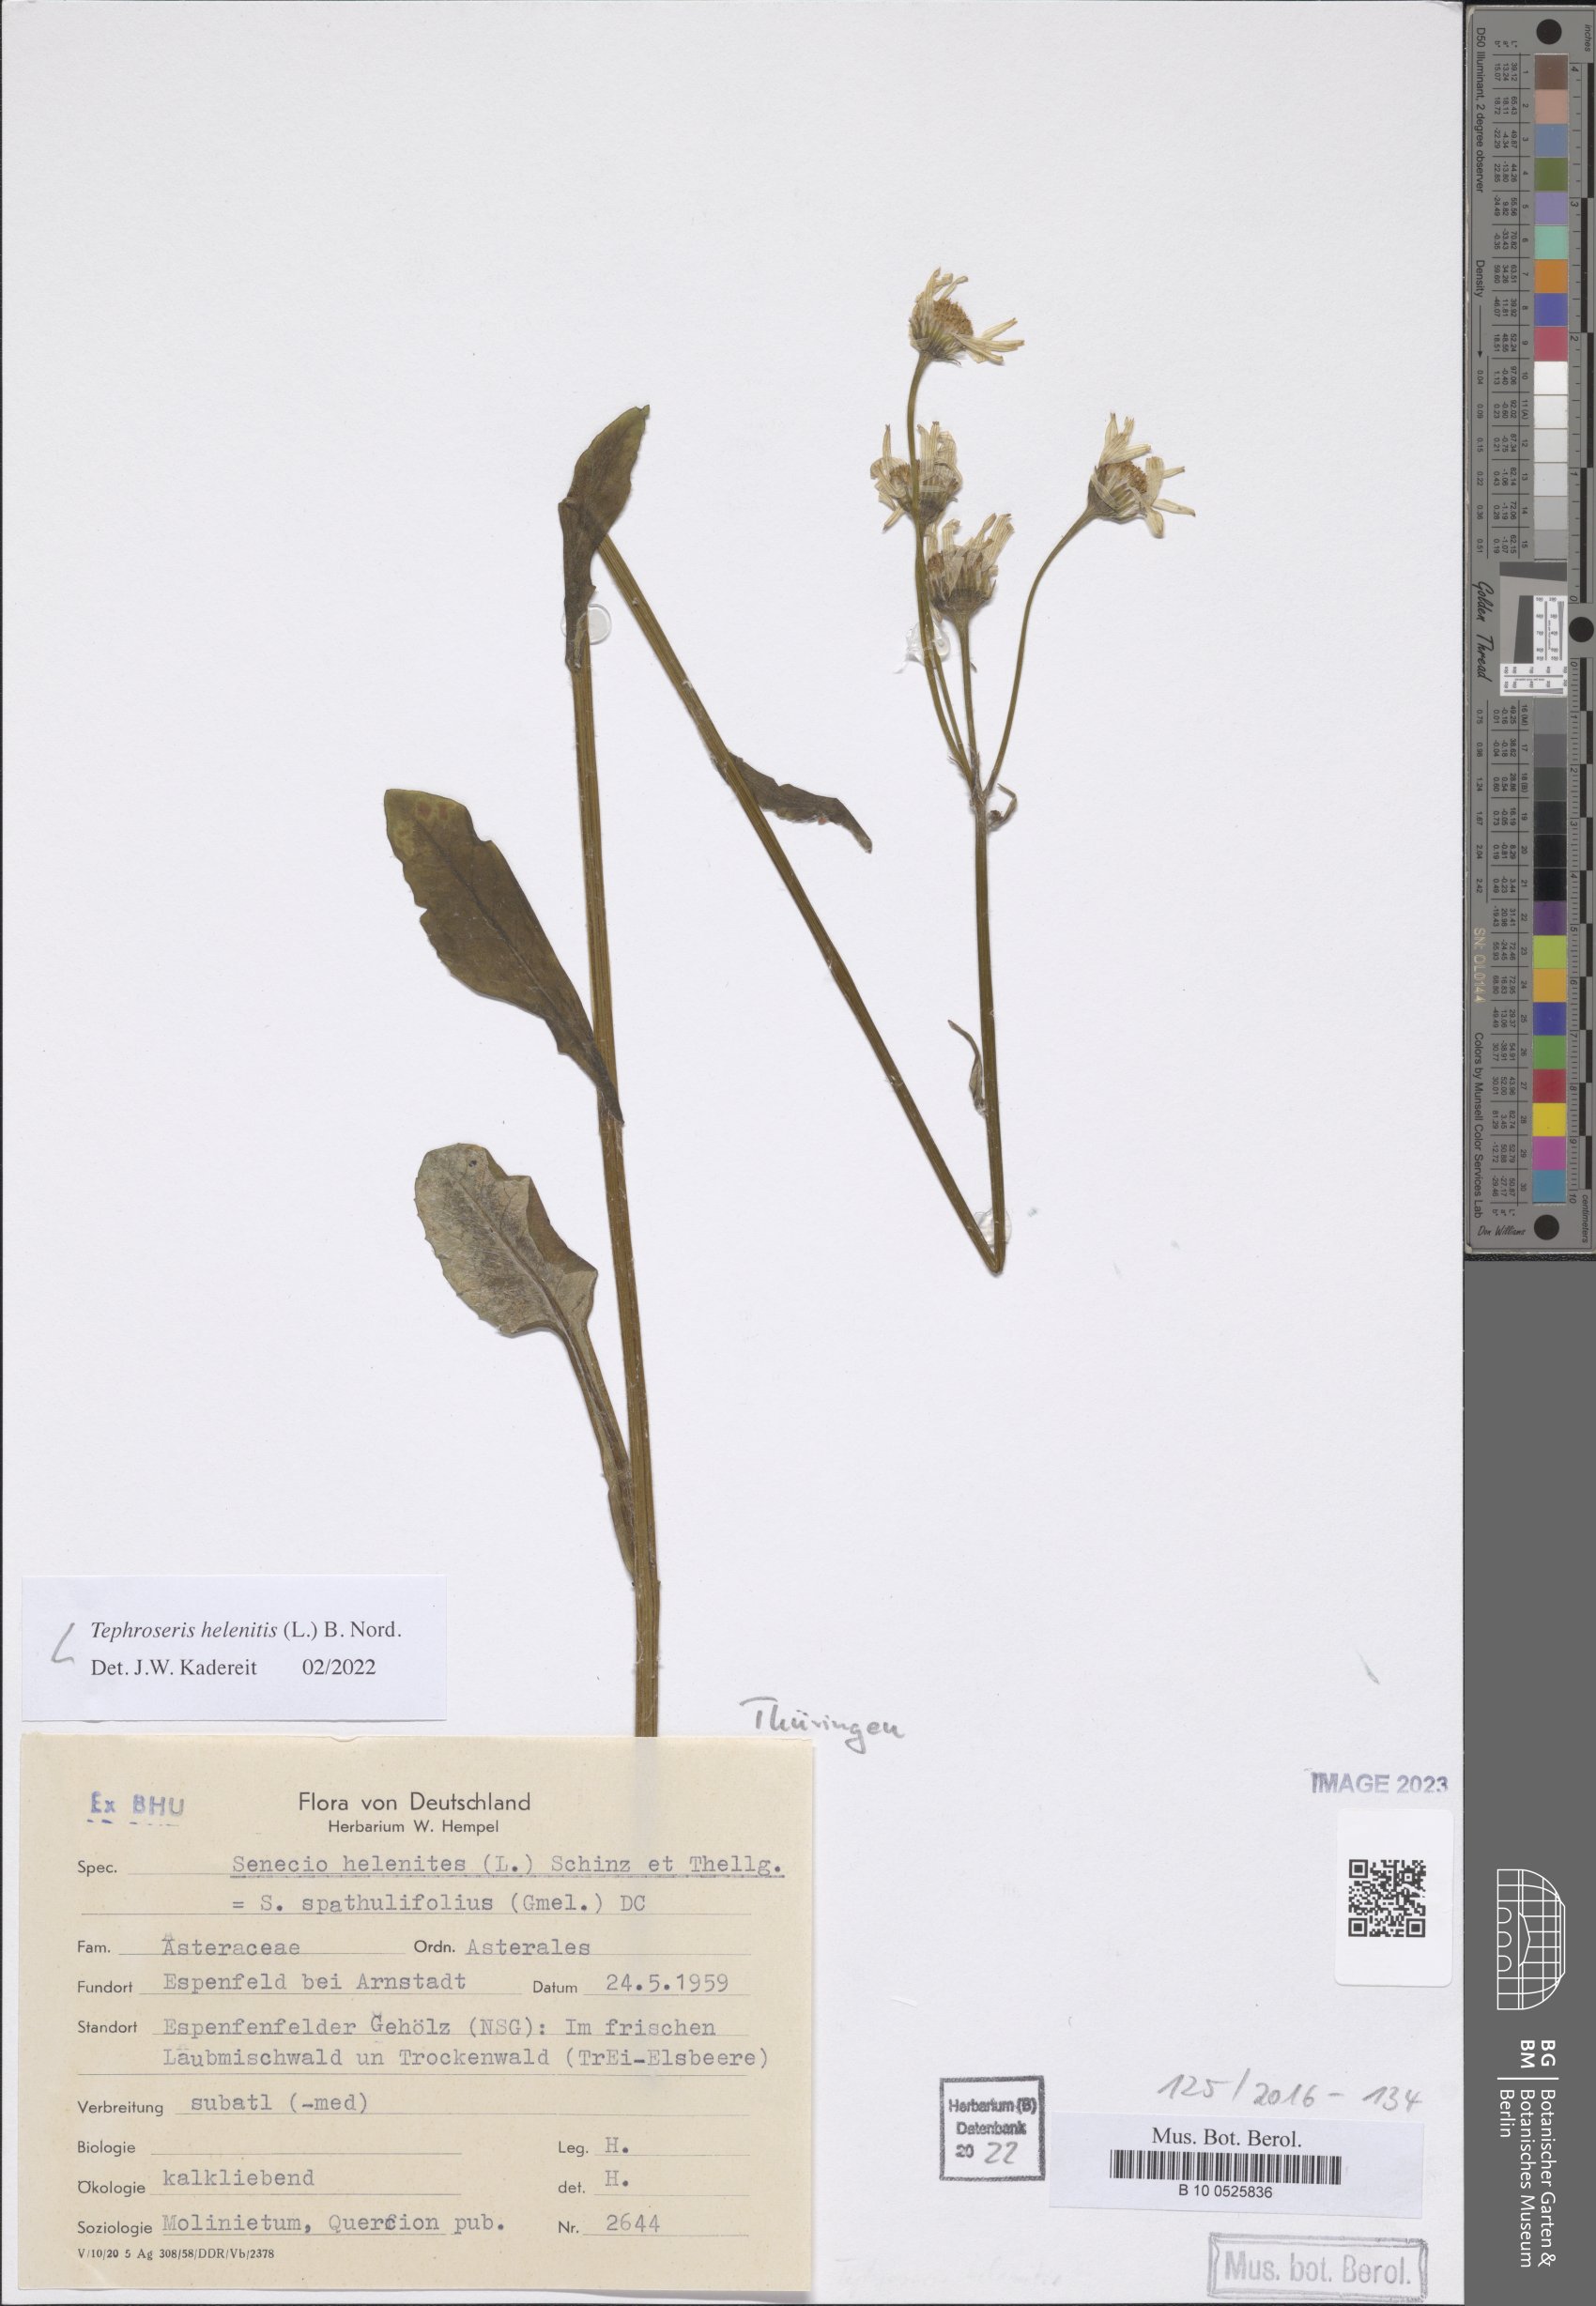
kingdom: Plantae
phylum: Tracheophyta
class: Magnoliopsida
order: Asterales
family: Asteraceae
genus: Tephroseris
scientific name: Tephroseris helenitis
